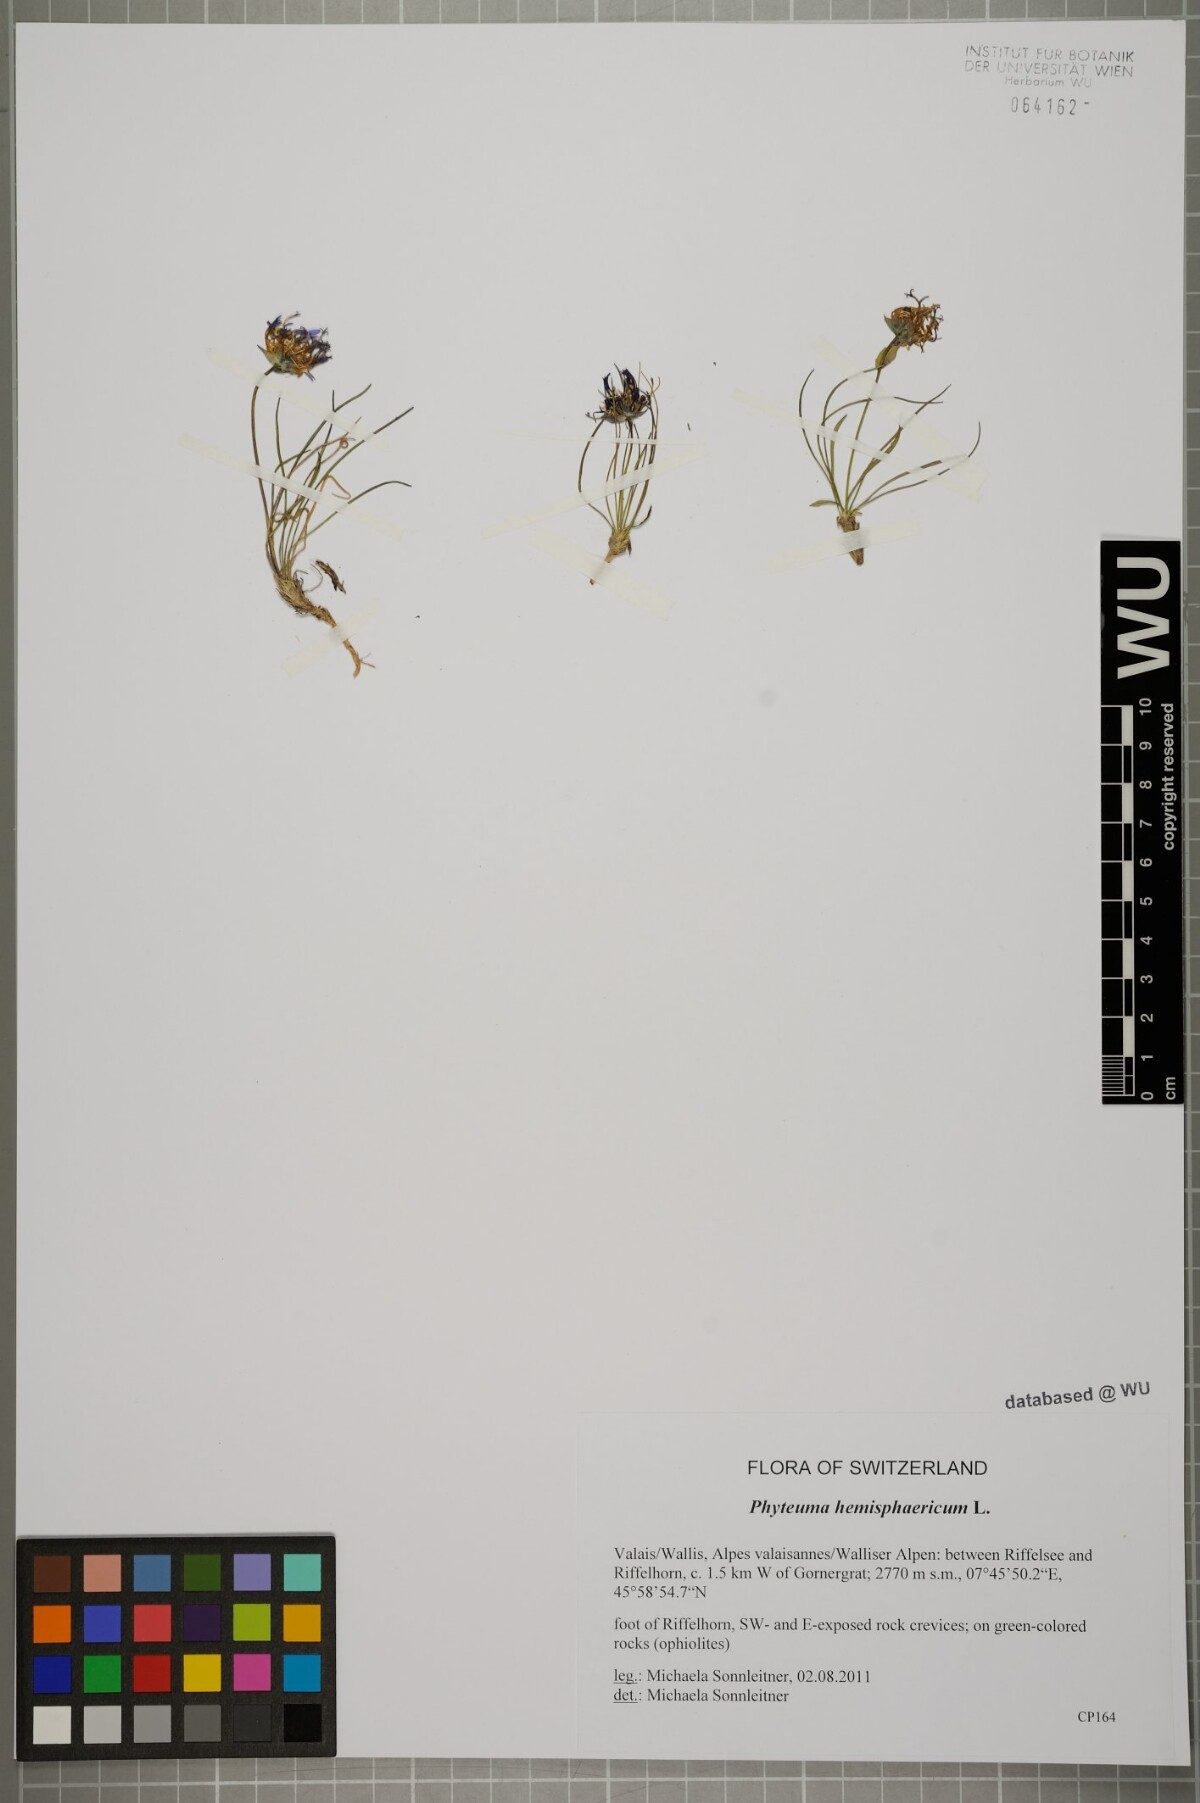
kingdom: Plantae
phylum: Tracheophyta
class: Magnoliopsida
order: Asterales
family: Campanulaceae
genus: Phyteuma
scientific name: Phyteuma hemisphaericum
